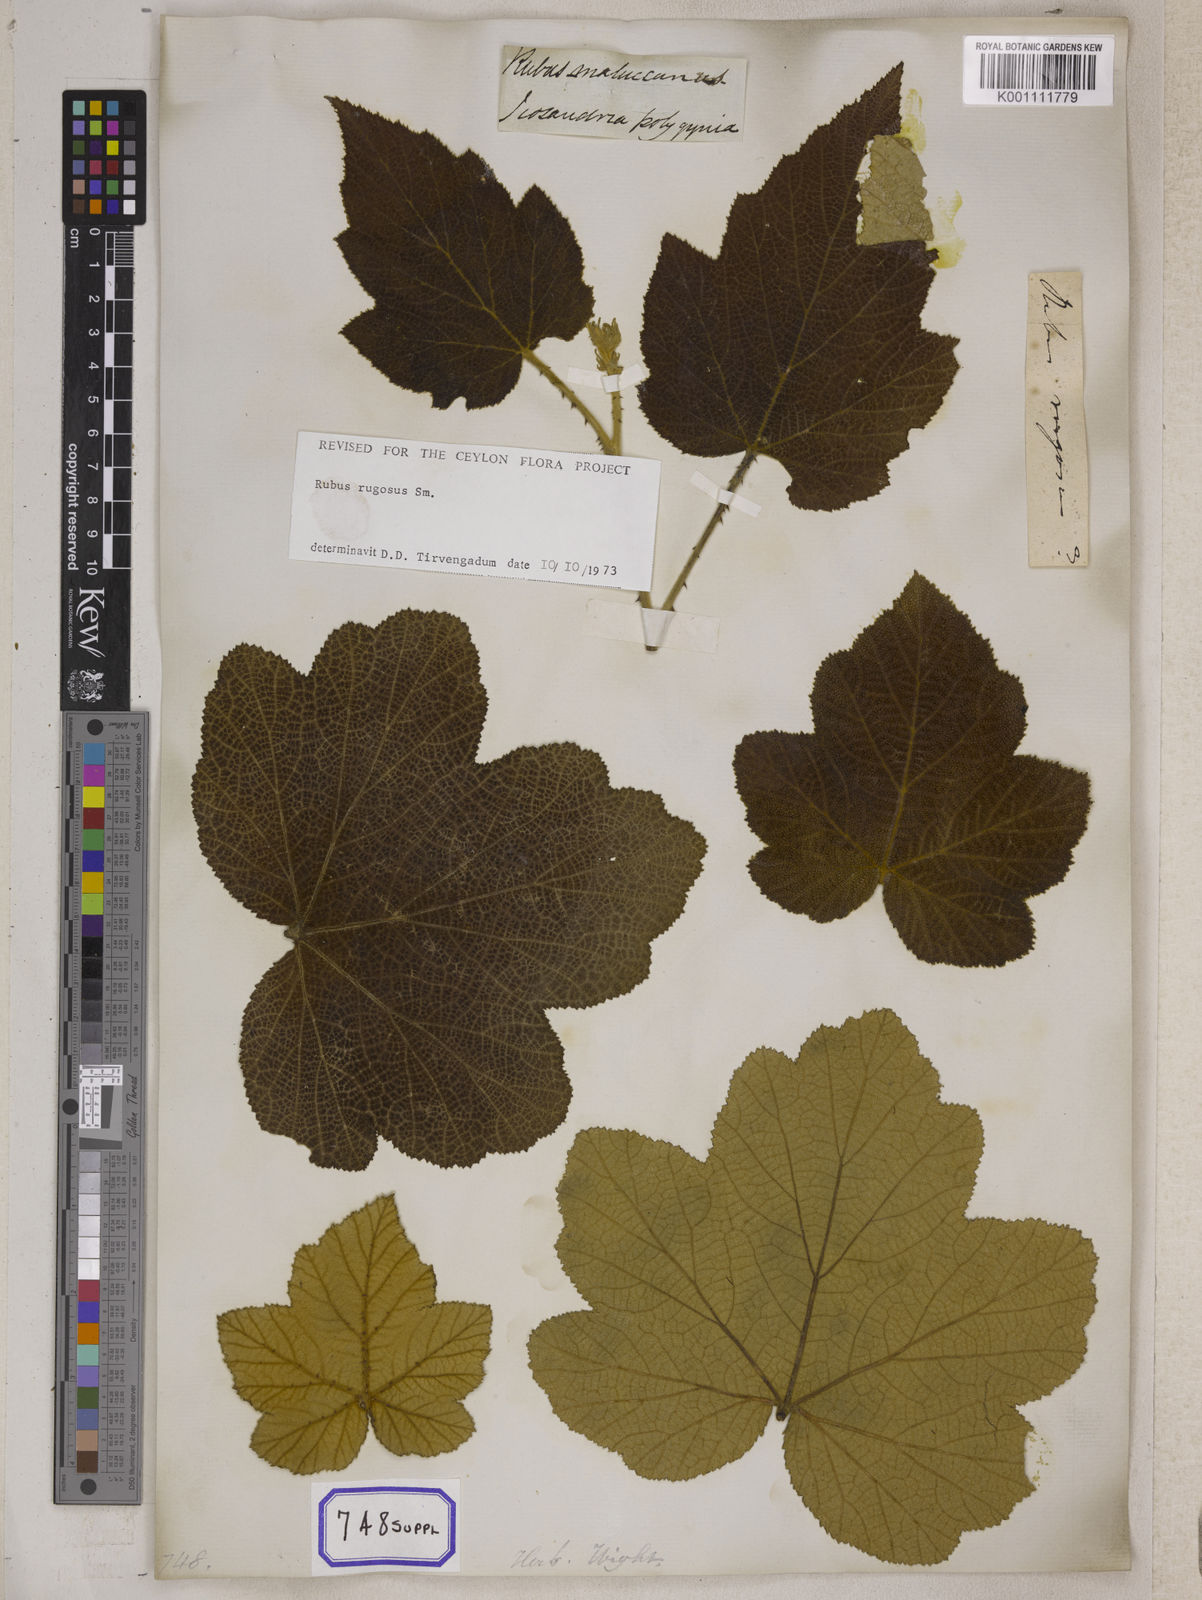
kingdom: Plantae
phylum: Tracheophyta
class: Magnoliopsida
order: Rosales
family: Rosaceae
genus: Rubus
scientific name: Rubus
